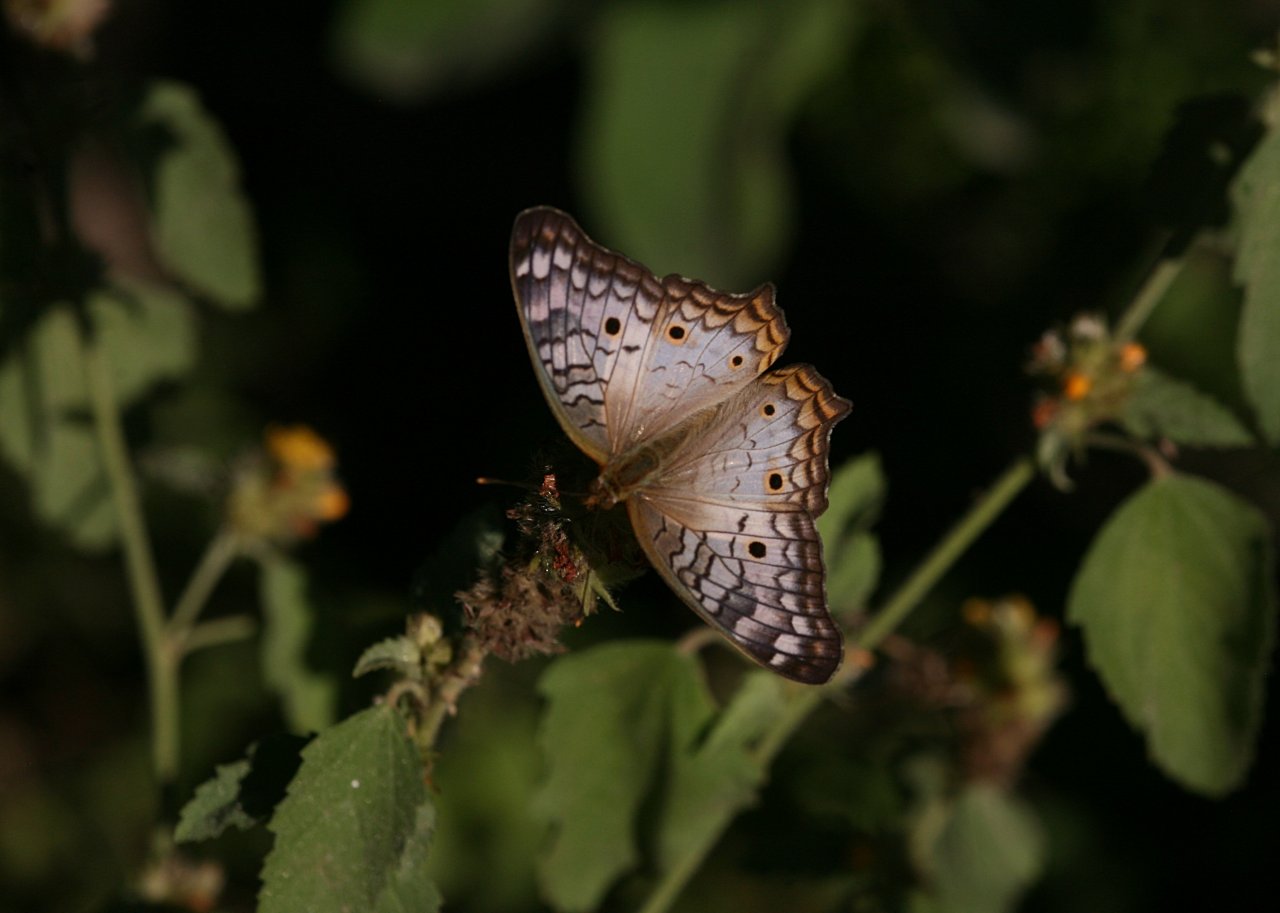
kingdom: Animalia
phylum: Arthropoda
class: Insecta
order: Lepidoptera
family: Nymphalidae
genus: Anartia
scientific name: Anartia jatrophae
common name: White Peacock
